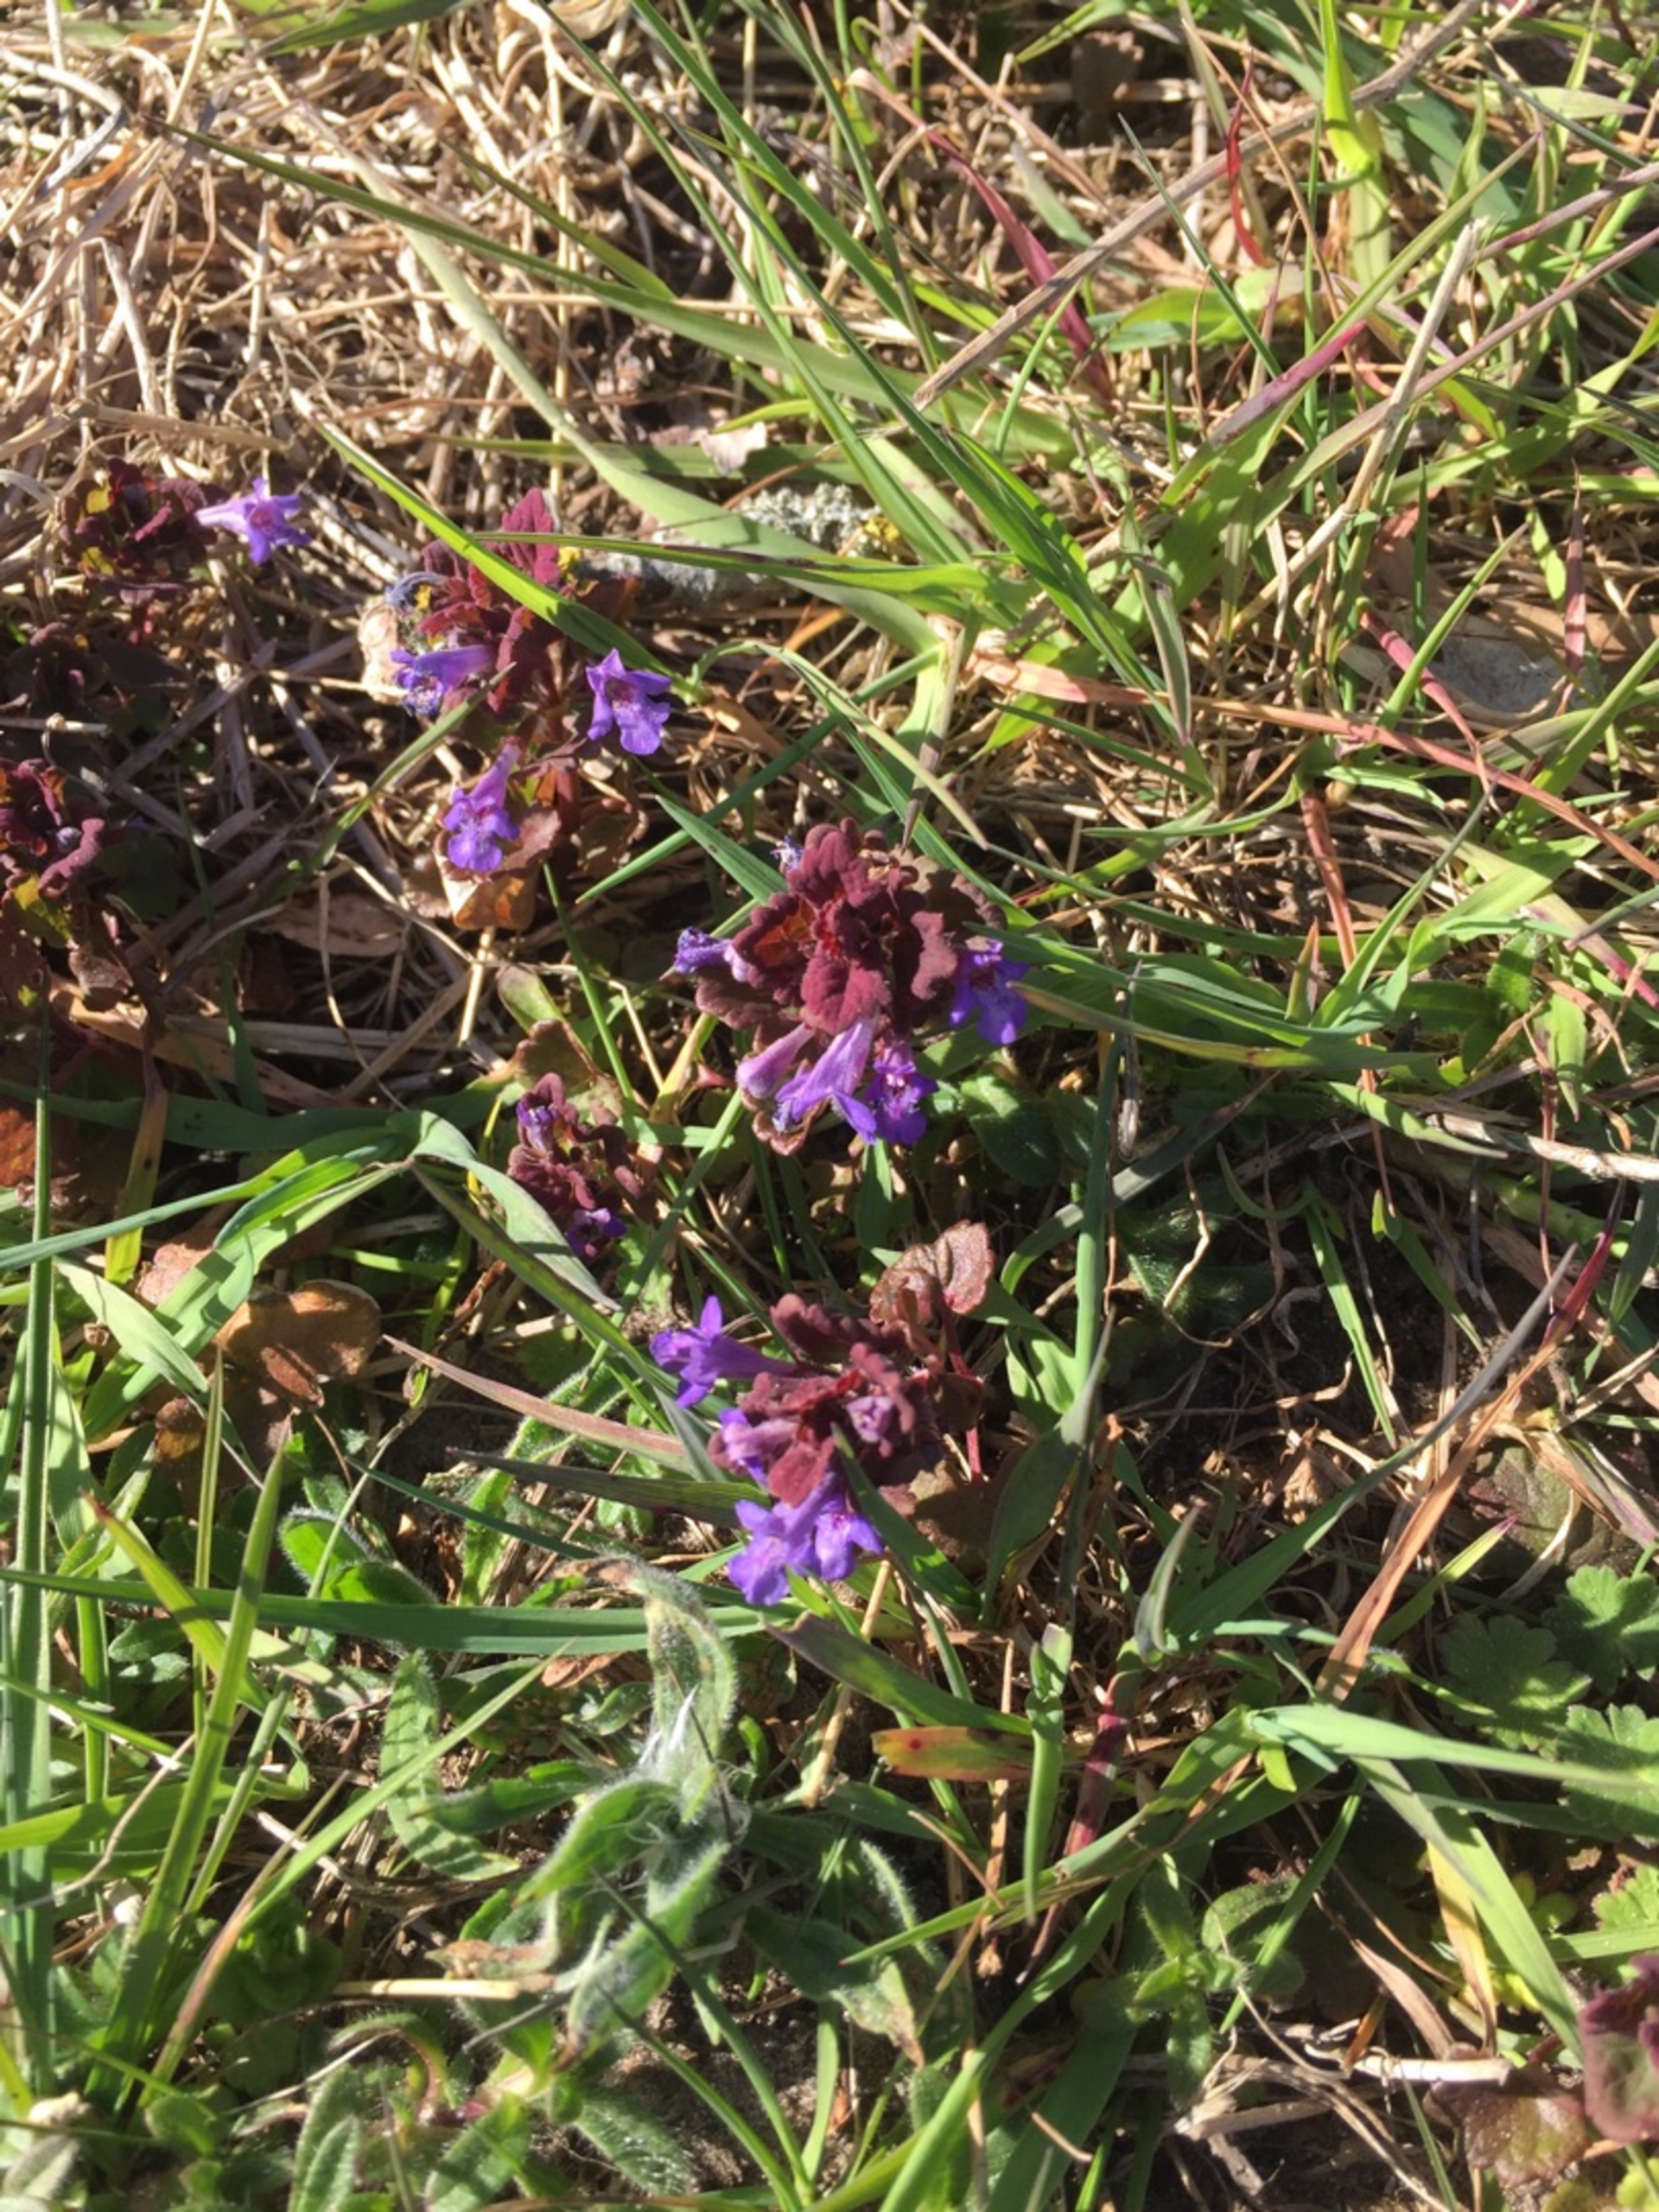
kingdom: Plantae
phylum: Tracheophyta
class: Magnoliopsida
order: Lamiales
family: Lamiaceae
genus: Glechoma
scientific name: Glechoma hederacea
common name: Korsknap
